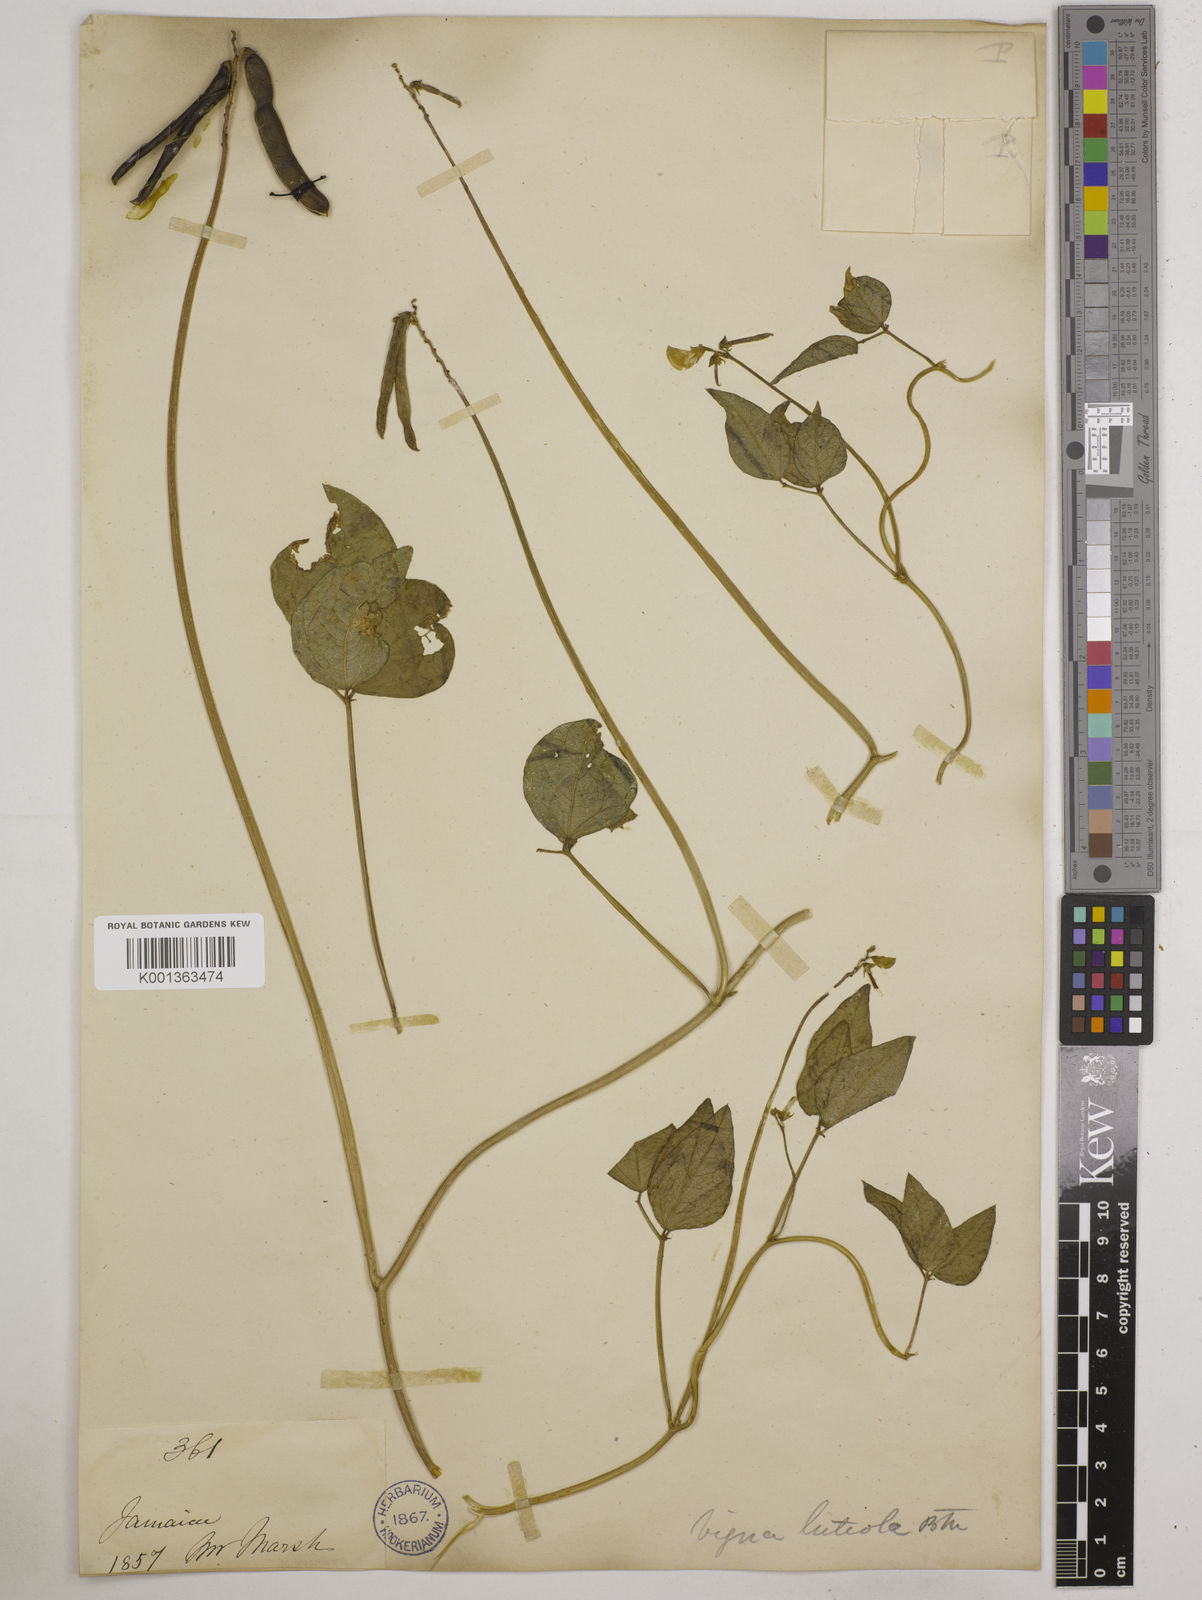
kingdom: Plantae
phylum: Tracheophyta
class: Magnoliopsida
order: Fabales
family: Fabaceae
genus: Vigna
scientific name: Vigna luteola
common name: Hairypod cowpea
